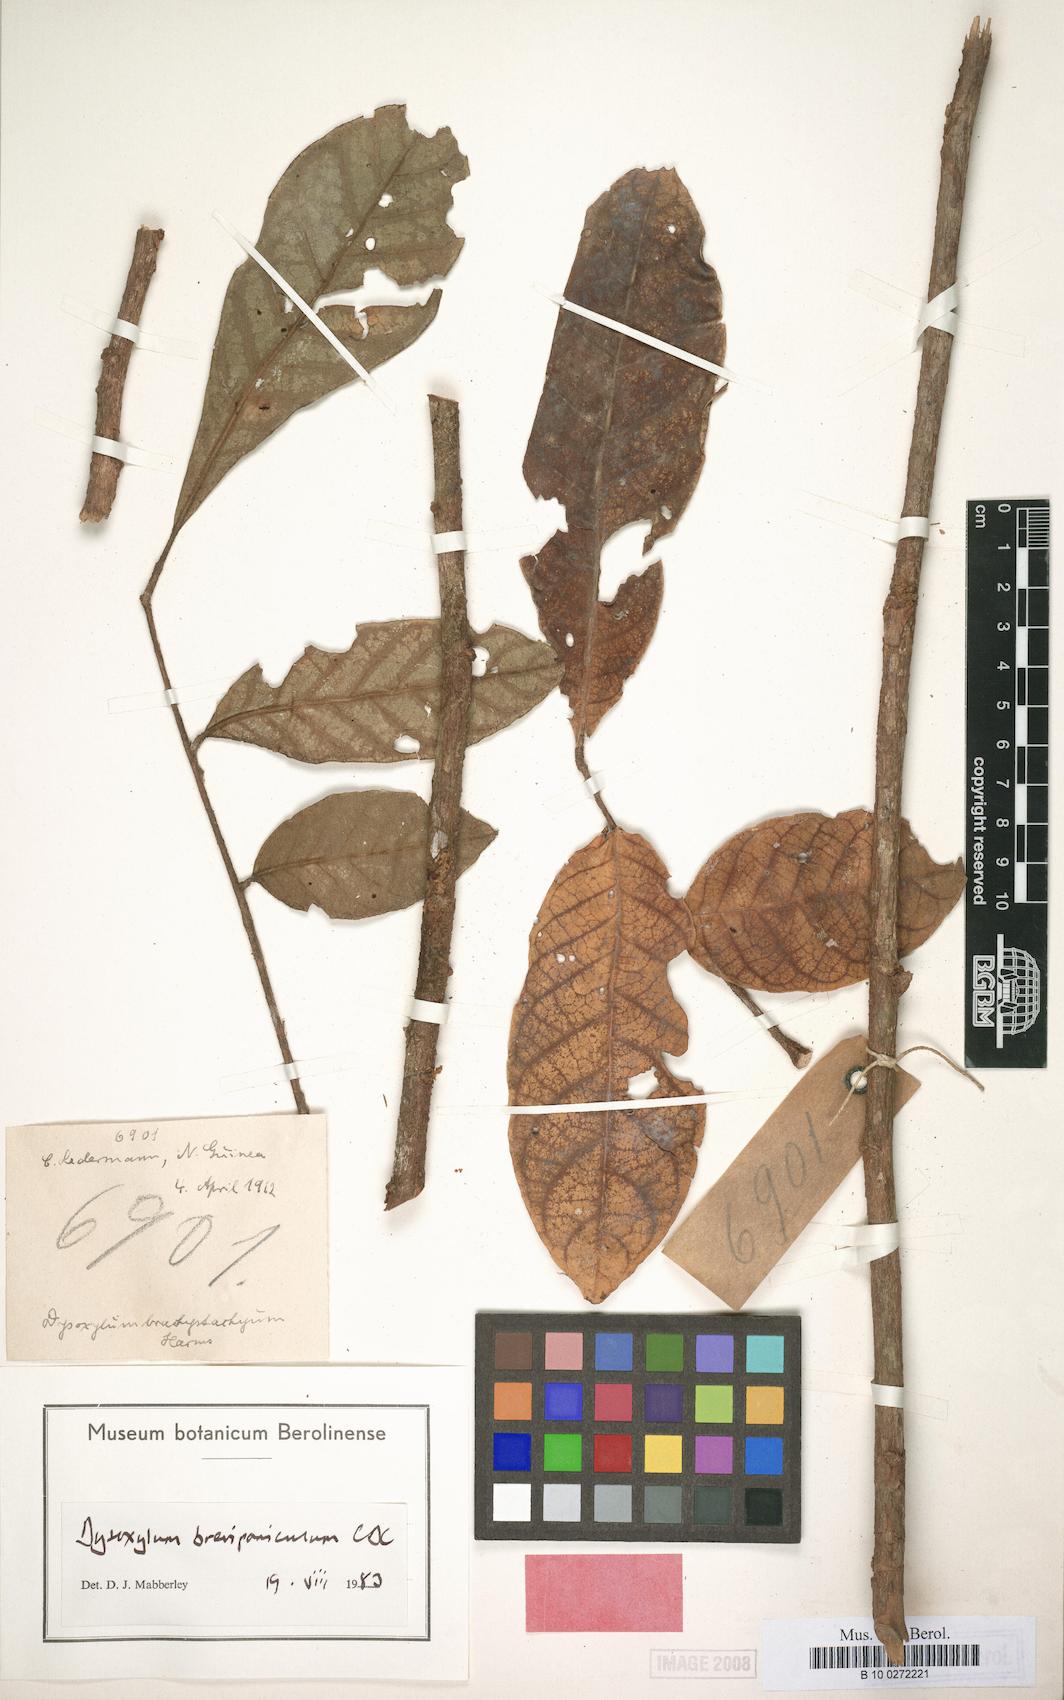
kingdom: Plantae
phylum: Tracheophyta
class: Magnoliopsida
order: Sapindales
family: Meliaceae
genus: Epicharis
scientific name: Epicharis brevipanicula
